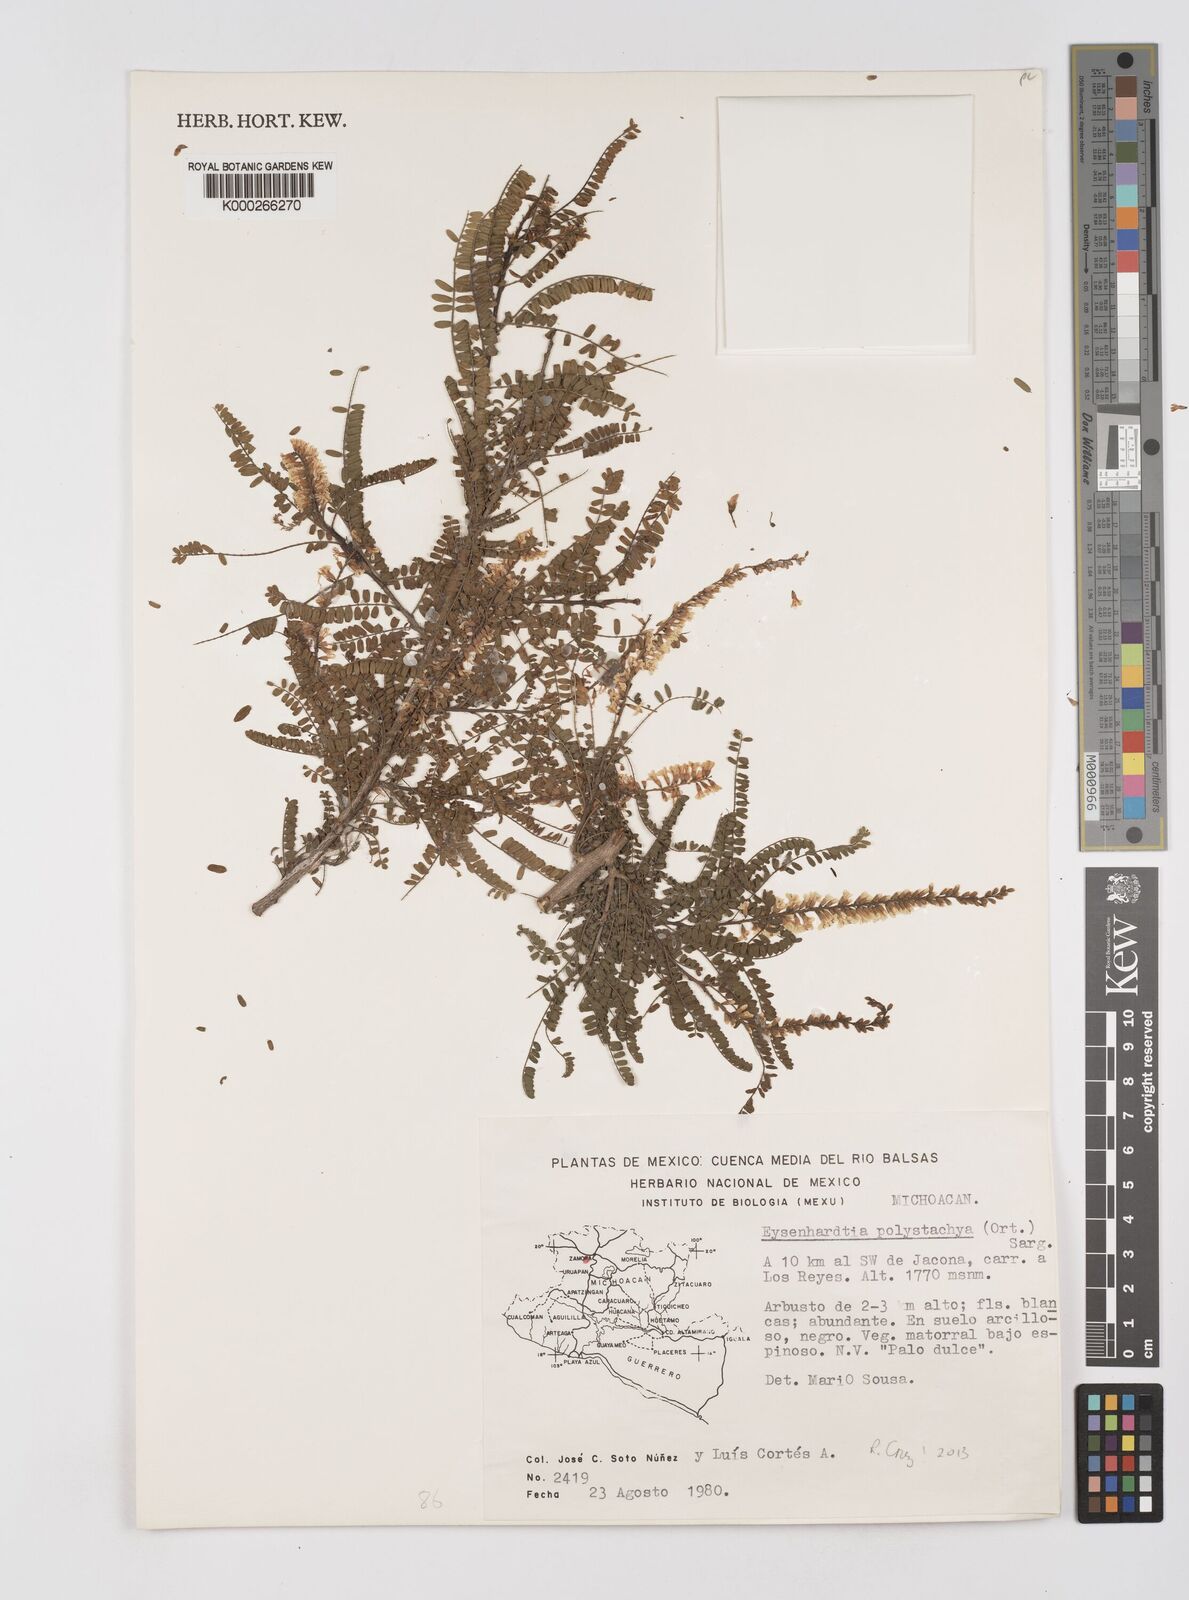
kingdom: Plantae
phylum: Tracheophyta
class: Magnoliopsida
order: Fabales
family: Fabaceae
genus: Eysenhardtia
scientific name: Eysenhardtia polystachya
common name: Kidneywood
